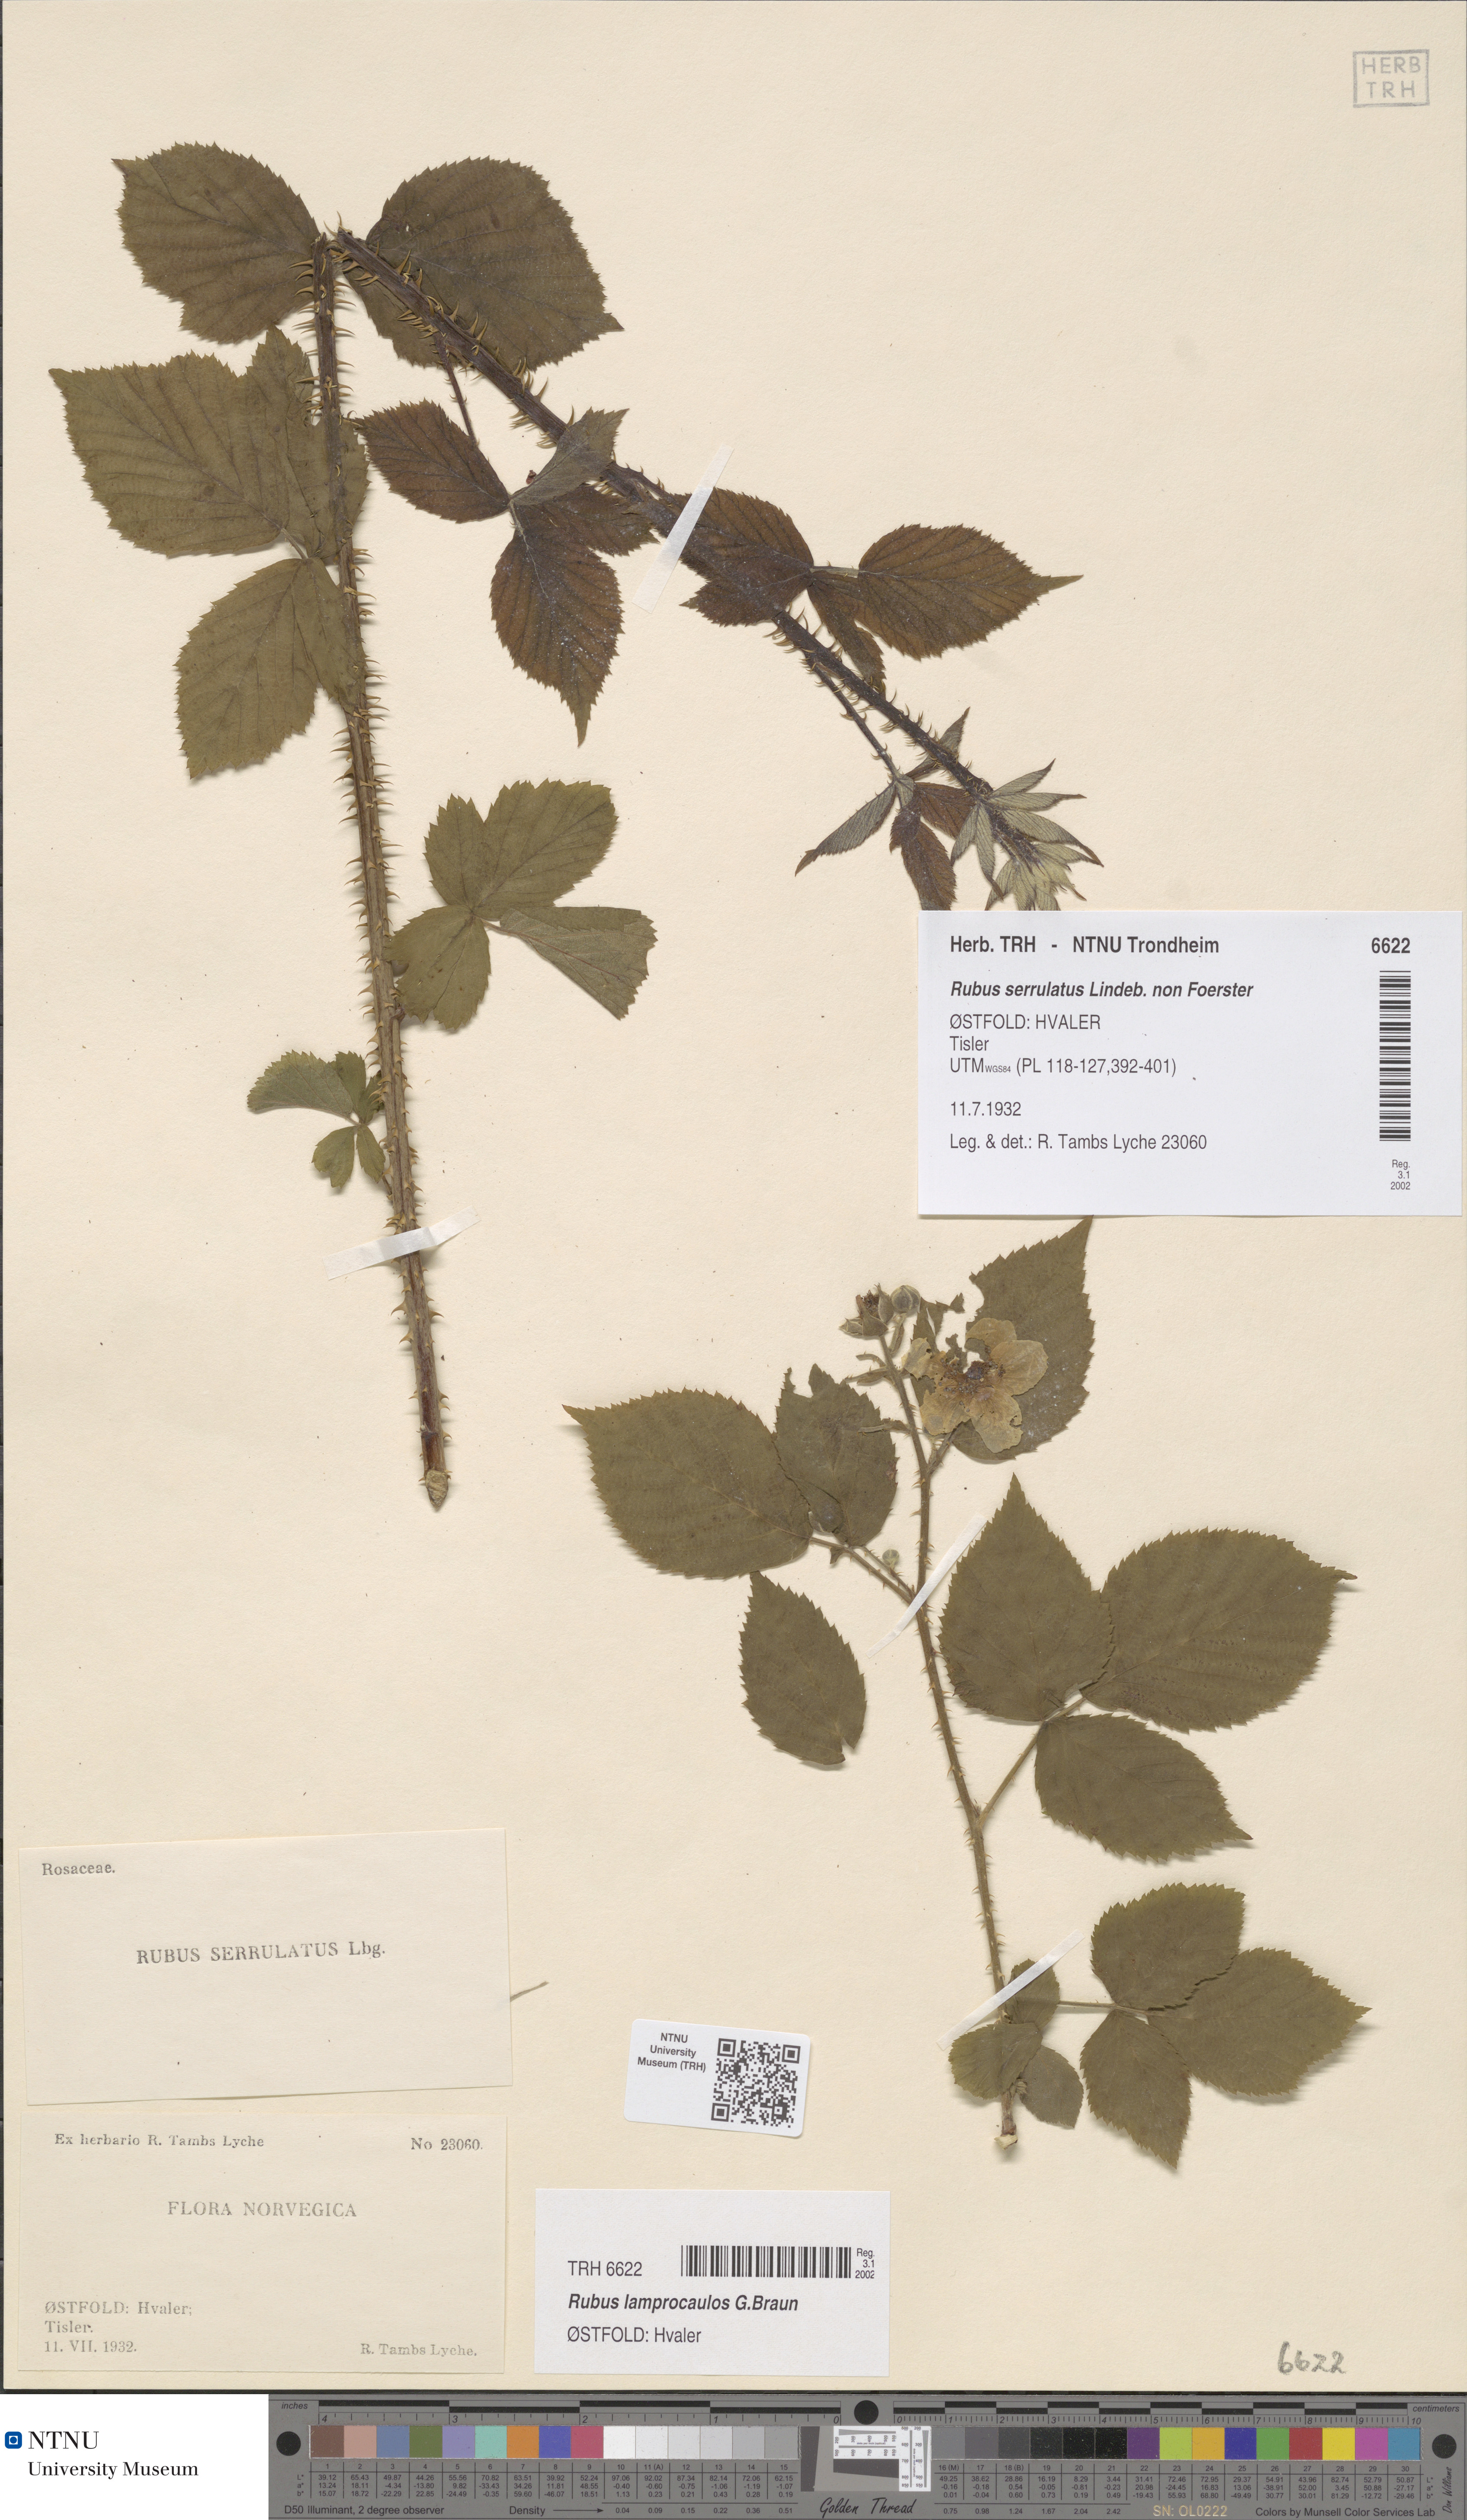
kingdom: Plantae
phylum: Tracheophyta
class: Magnoliopsida
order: Rosales
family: Rosaceae
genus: Rubus
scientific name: Rubus lamprocaulos
